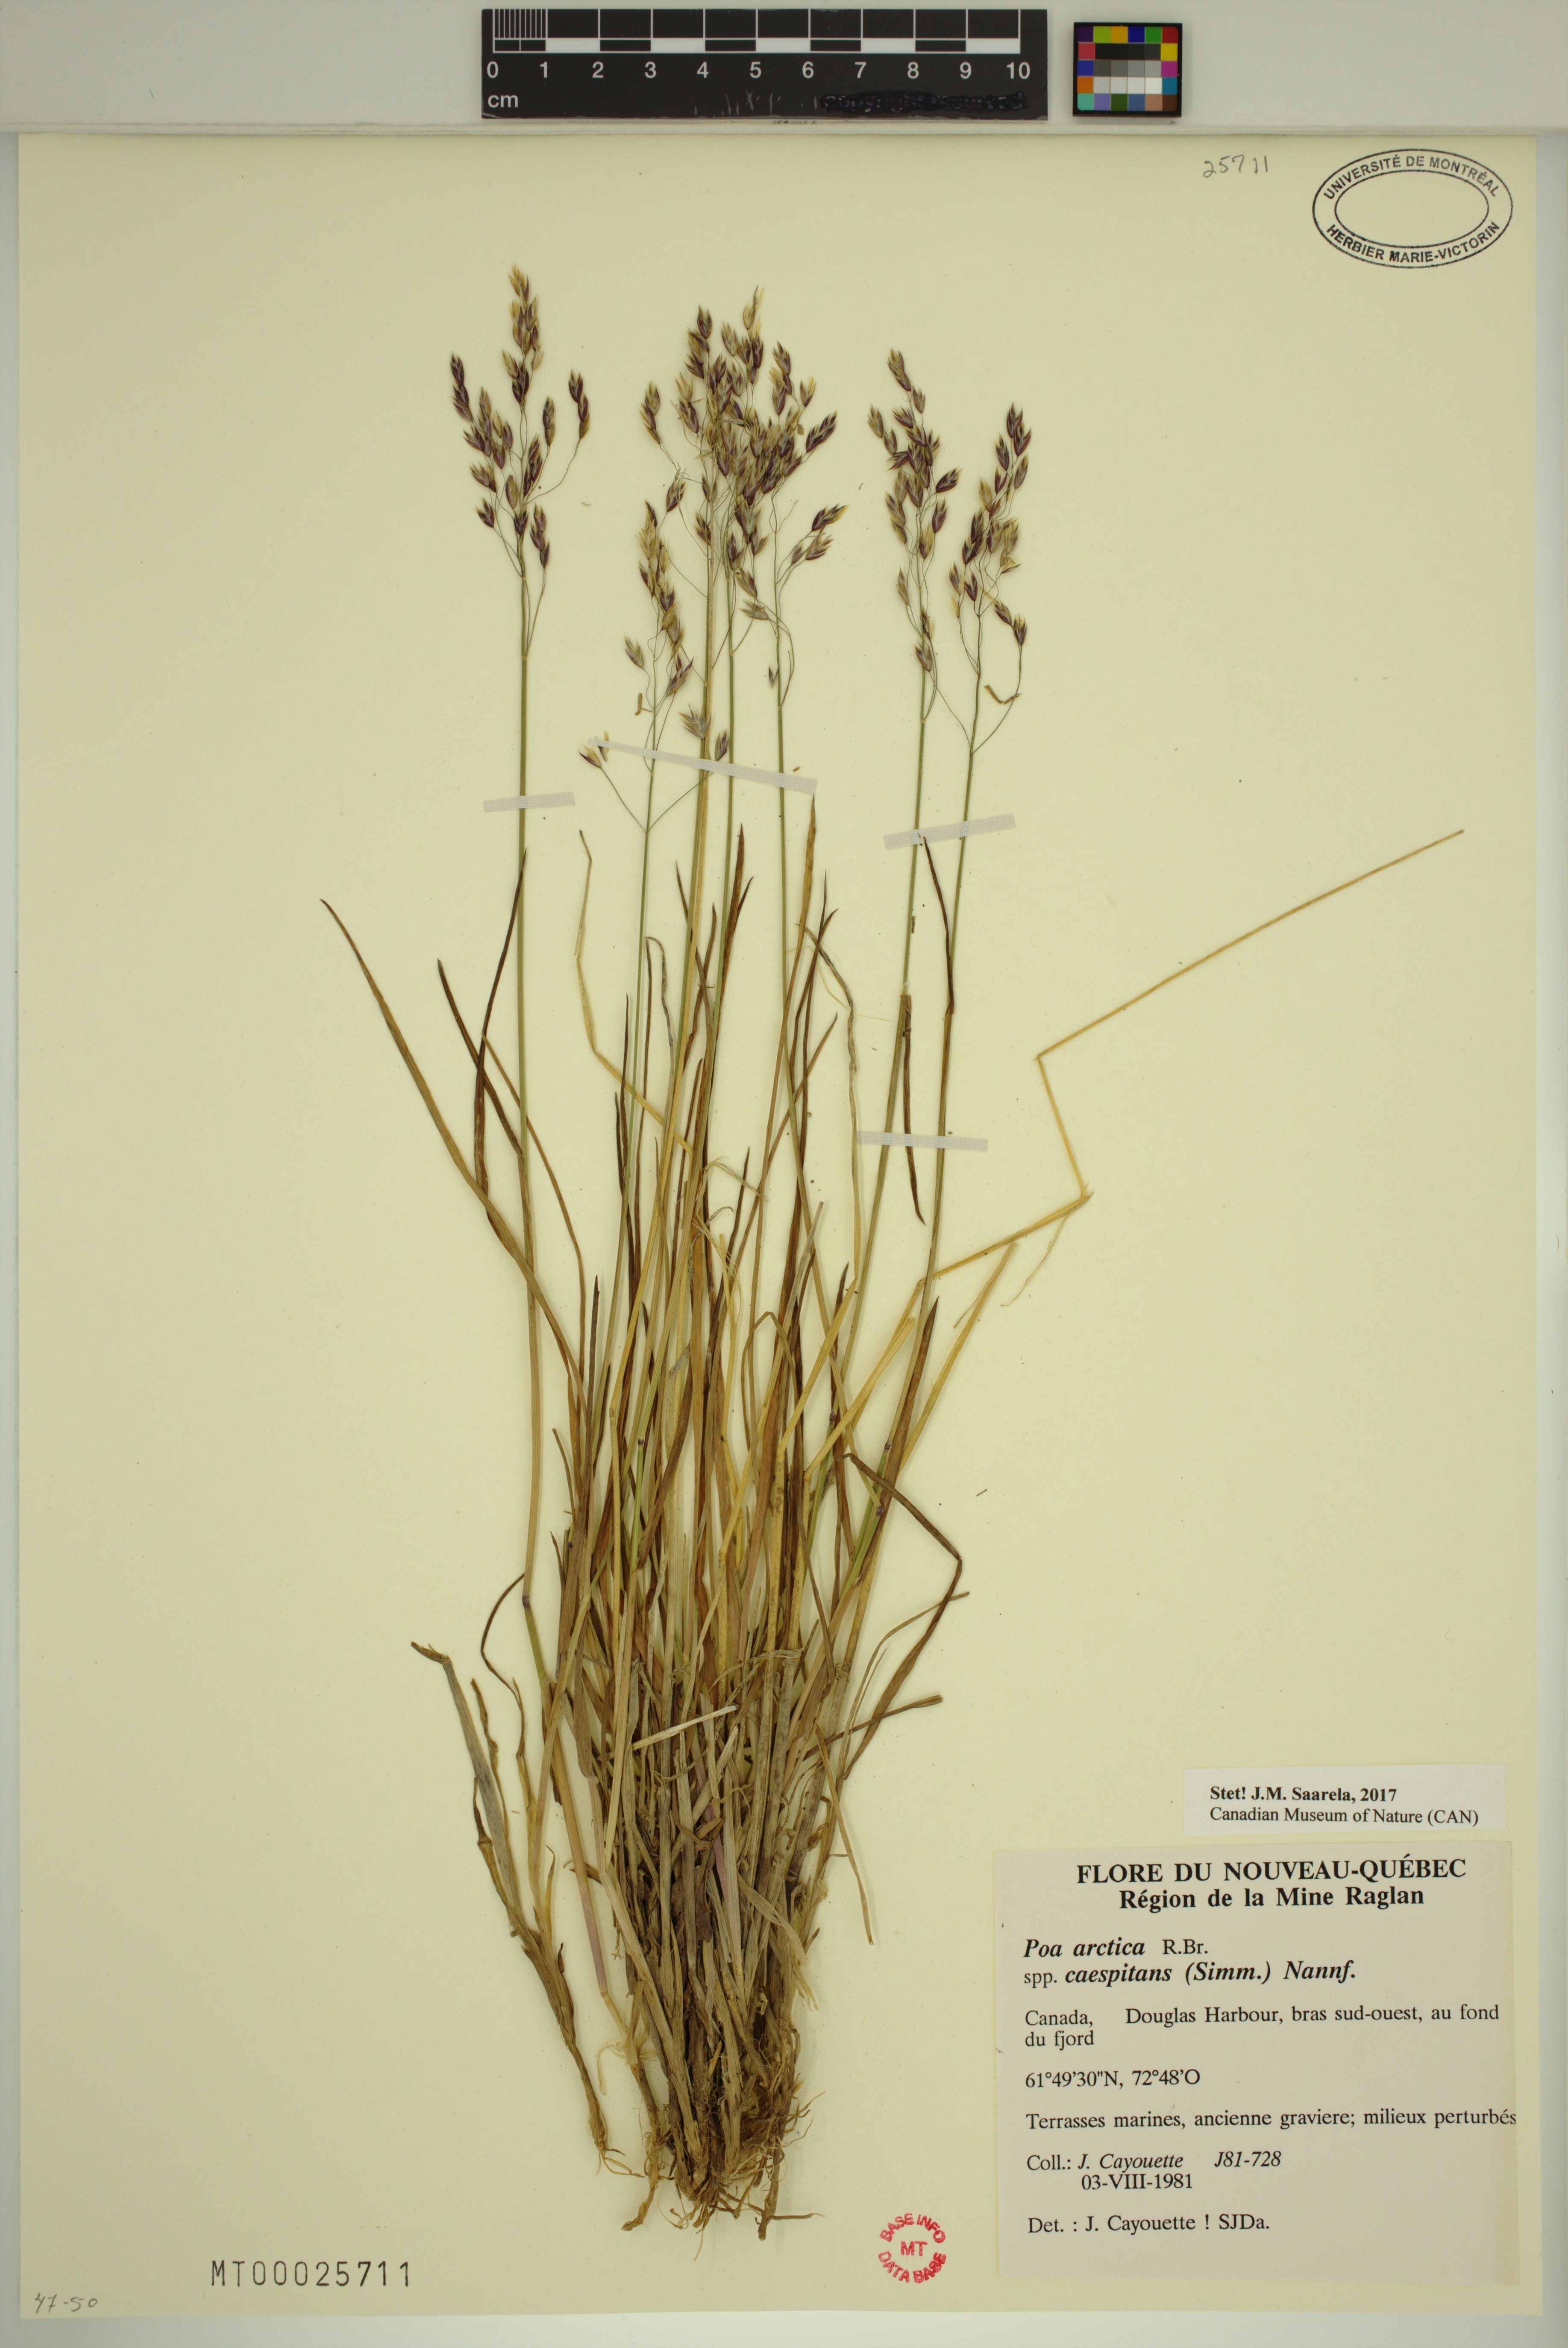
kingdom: Plantae
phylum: Tracheophyta
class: Liliopsida
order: Poales
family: Poaceae
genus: Poa
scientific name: Poa tolmatchewii
